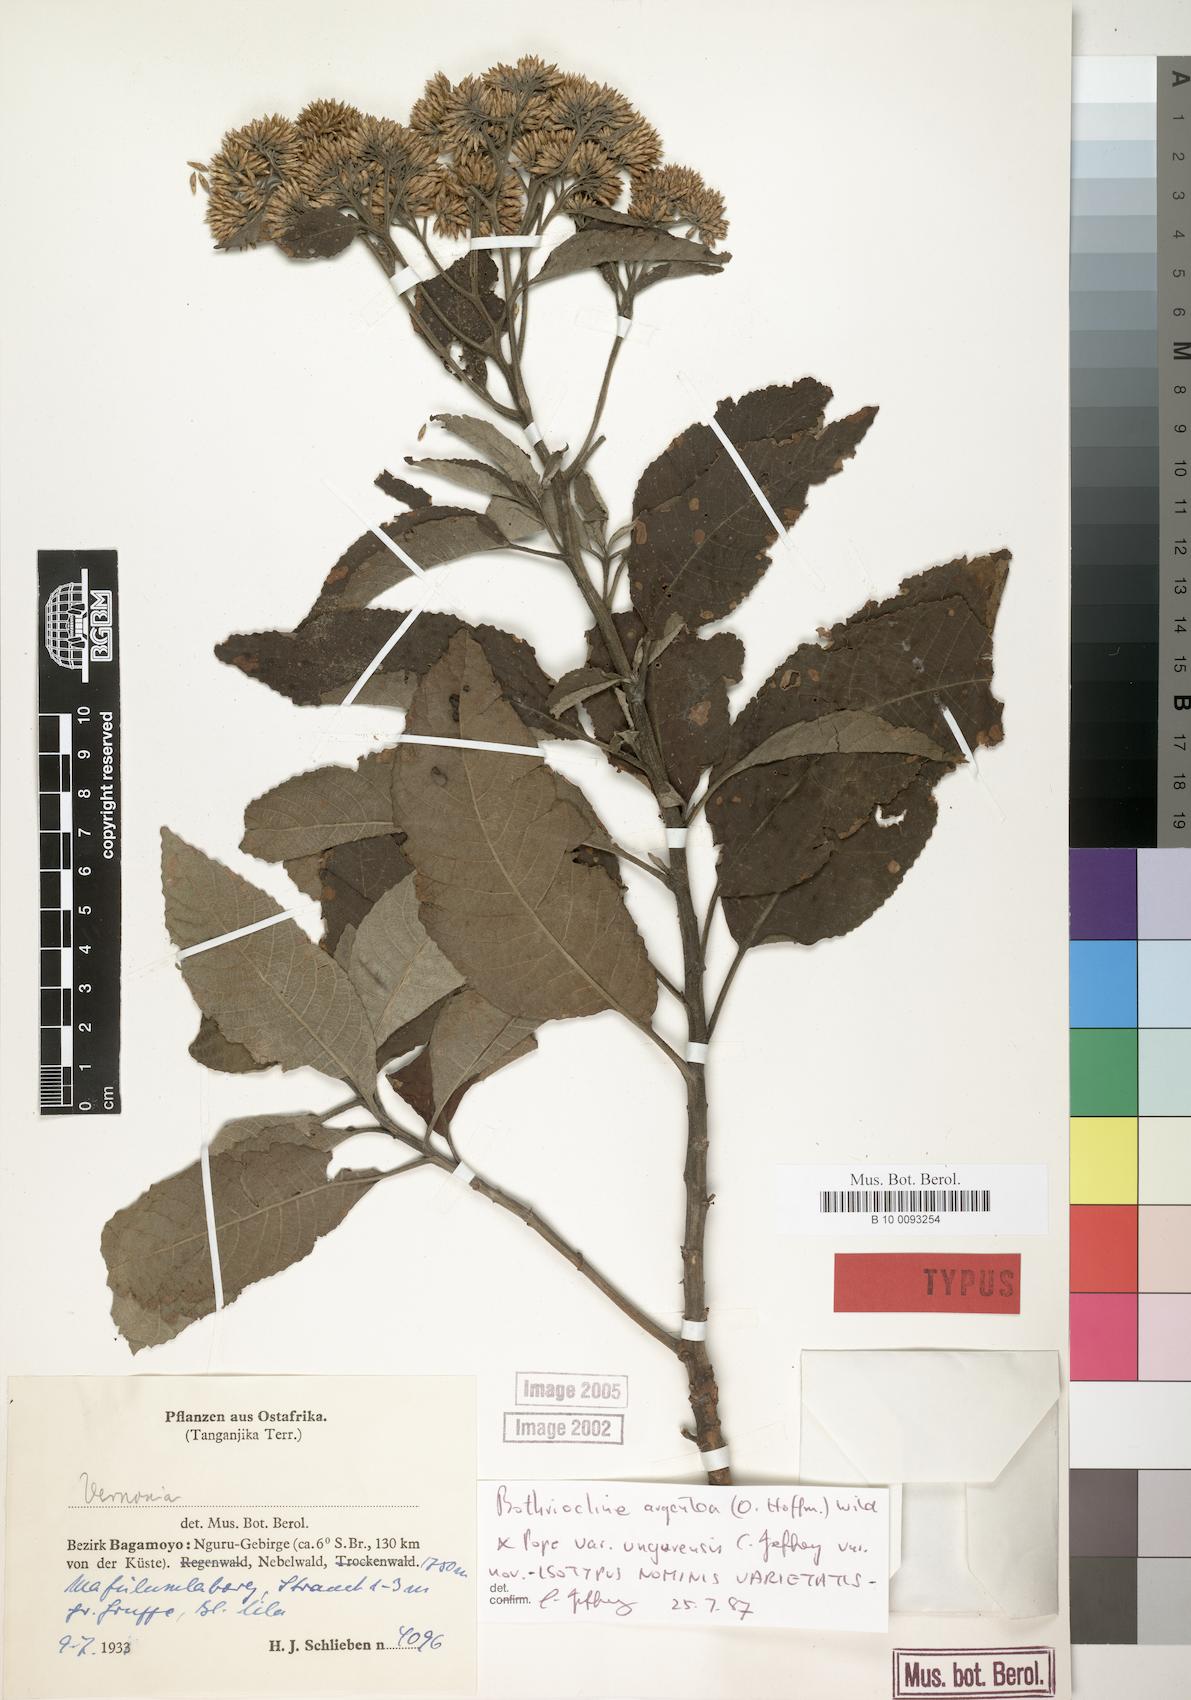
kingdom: Plantae
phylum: Tracheophyta
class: Magnoliopsida
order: Asterales
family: Asteraceae
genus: Bothriocline
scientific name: Bothriocline argentea
